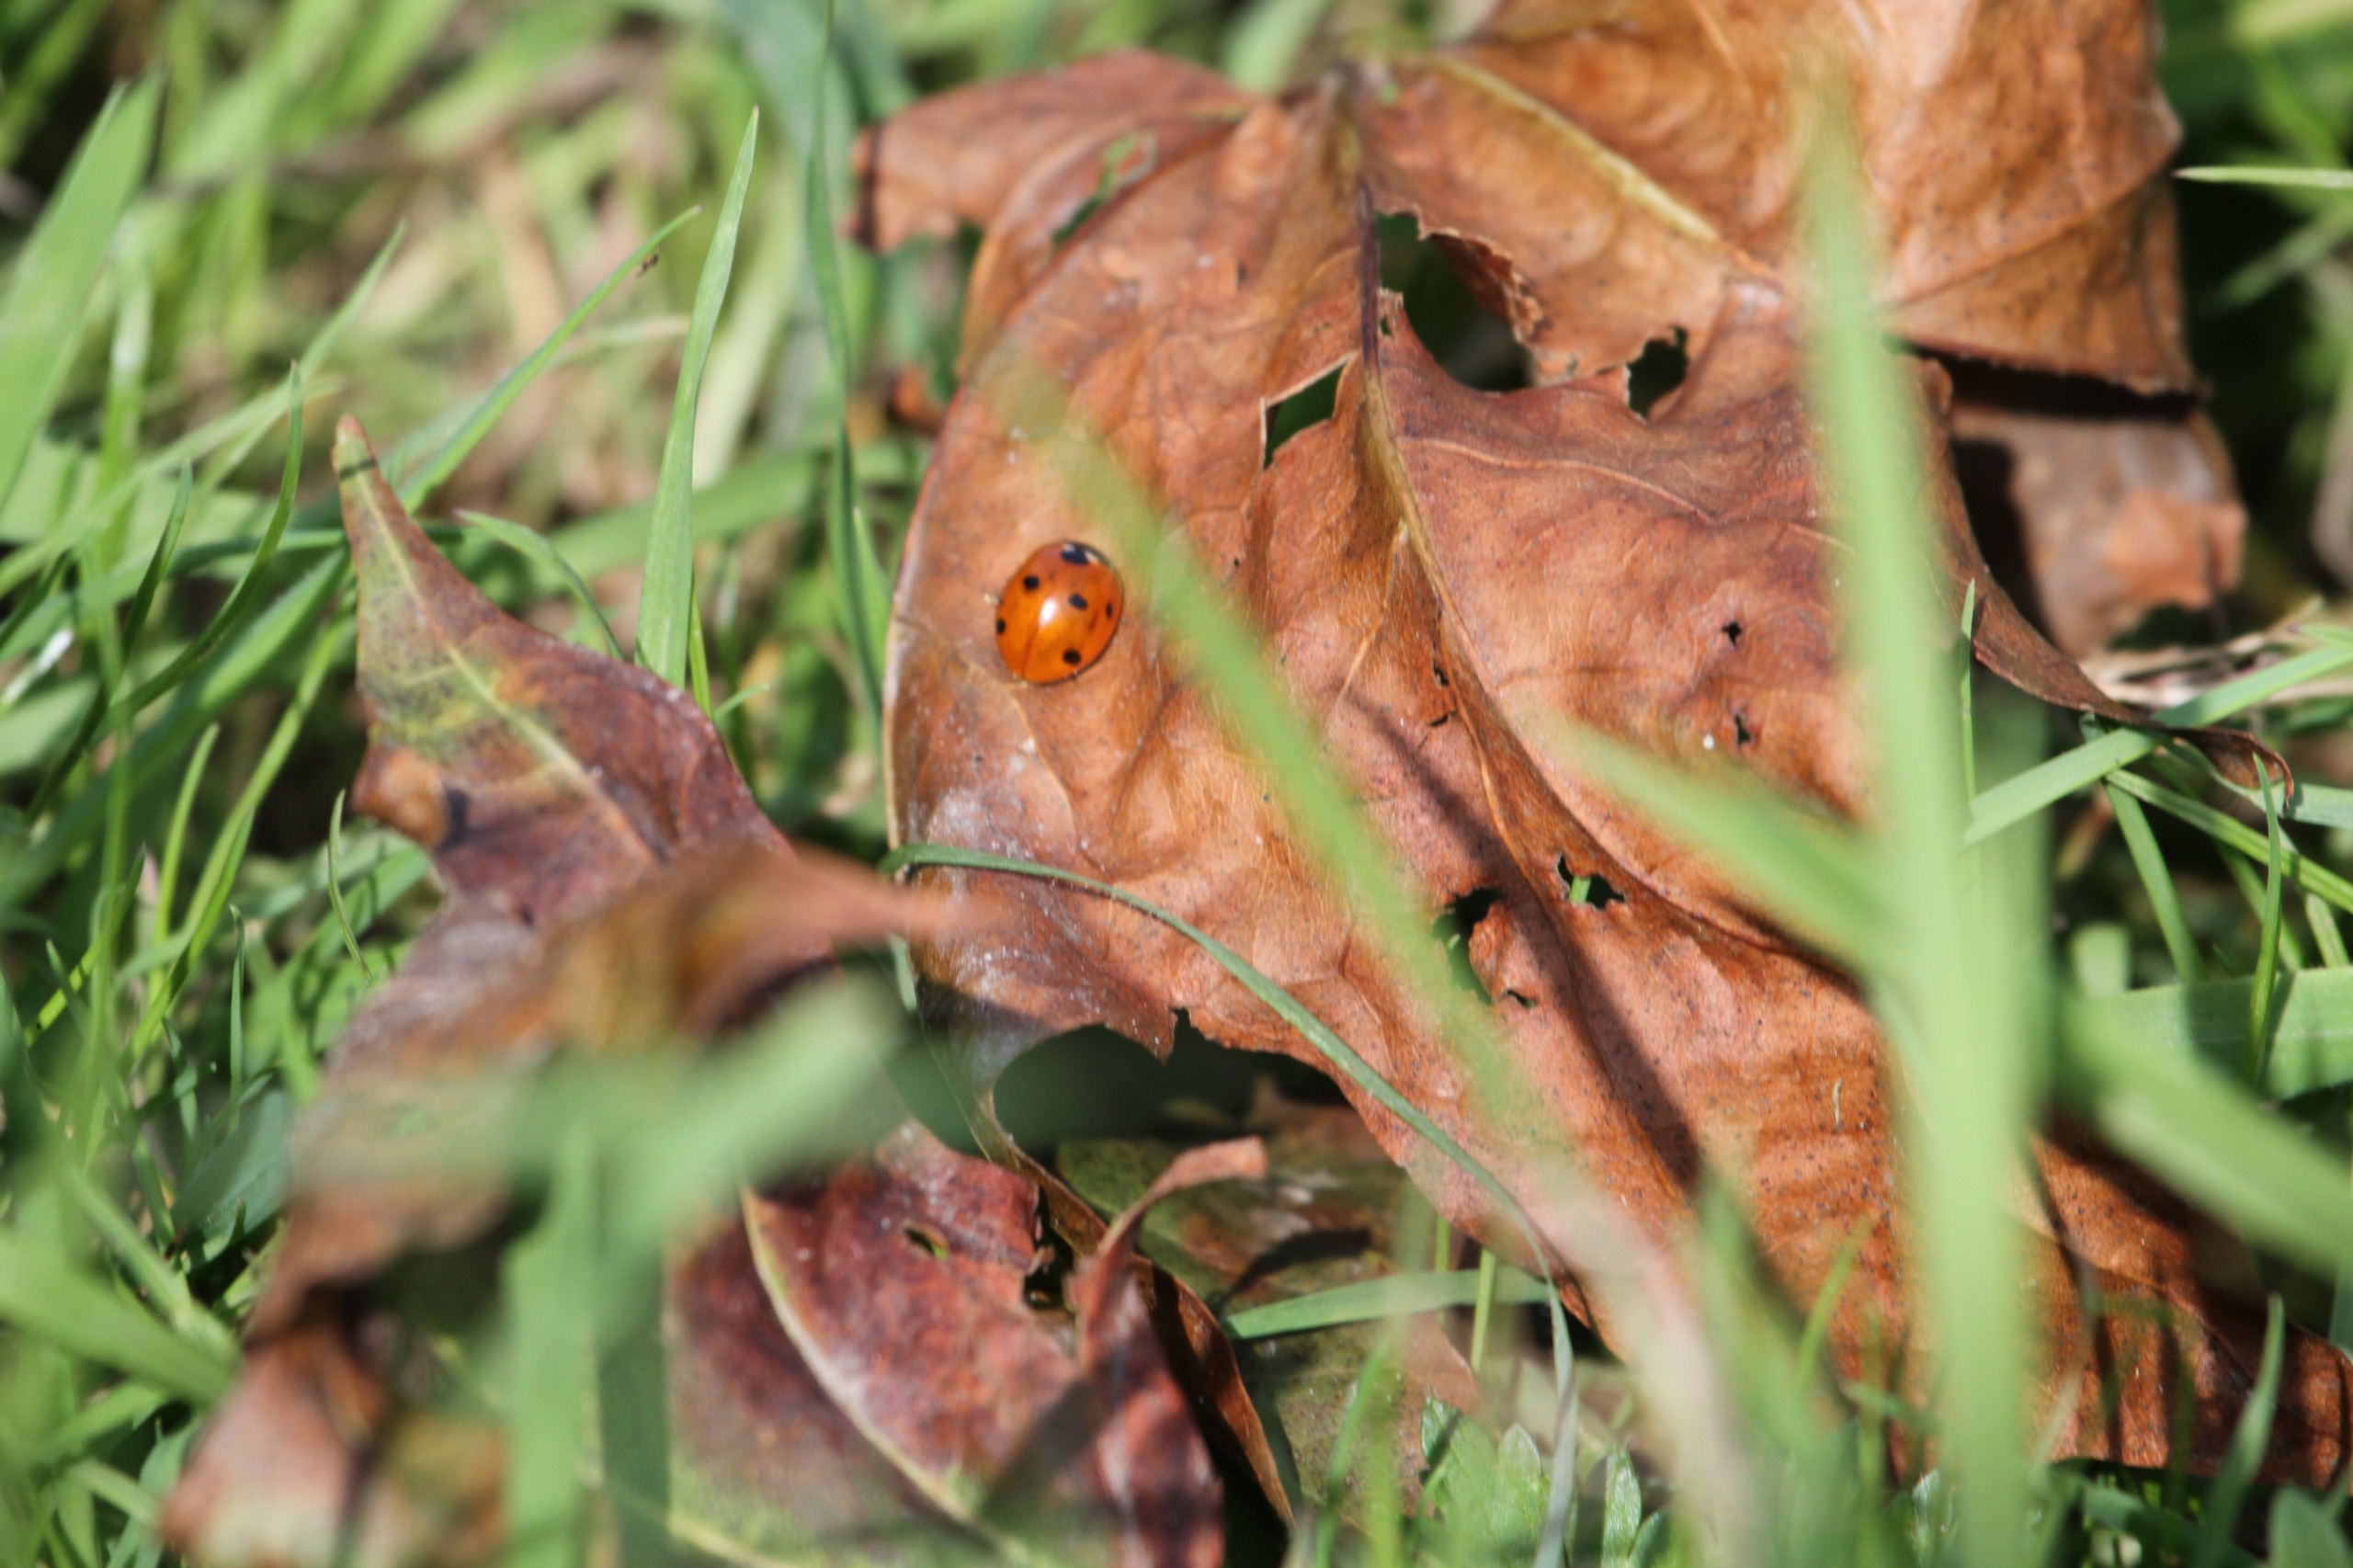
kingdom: Animalia
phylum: Arthropoda
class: Insecta
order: Coleoptera
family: Coccinellidae
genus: Coccinella
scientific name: Coccinella septempunctata
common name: Syvplettet mariehøne
